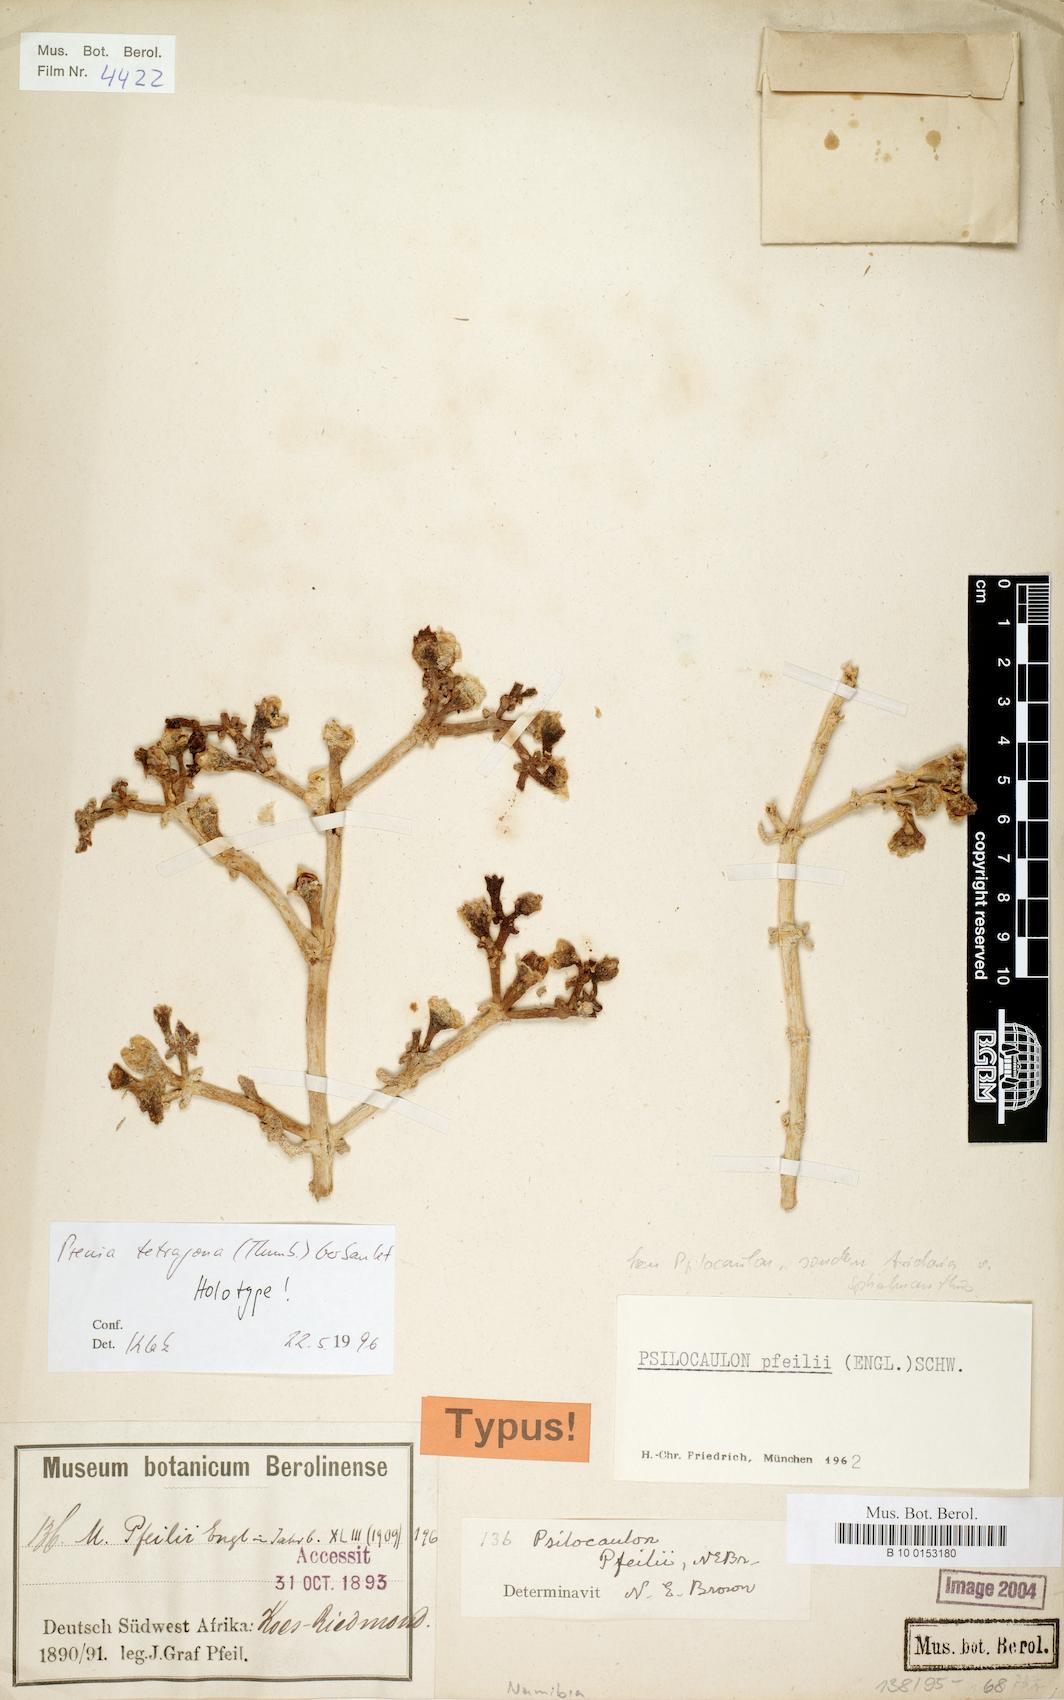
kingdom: Plantae
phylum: Tracheophyta
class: Magnoliopsida
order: Caryophyllales
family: Aizoaceae
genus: Mesembryanthemum
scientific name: Mesembryanthemum tetragonum
